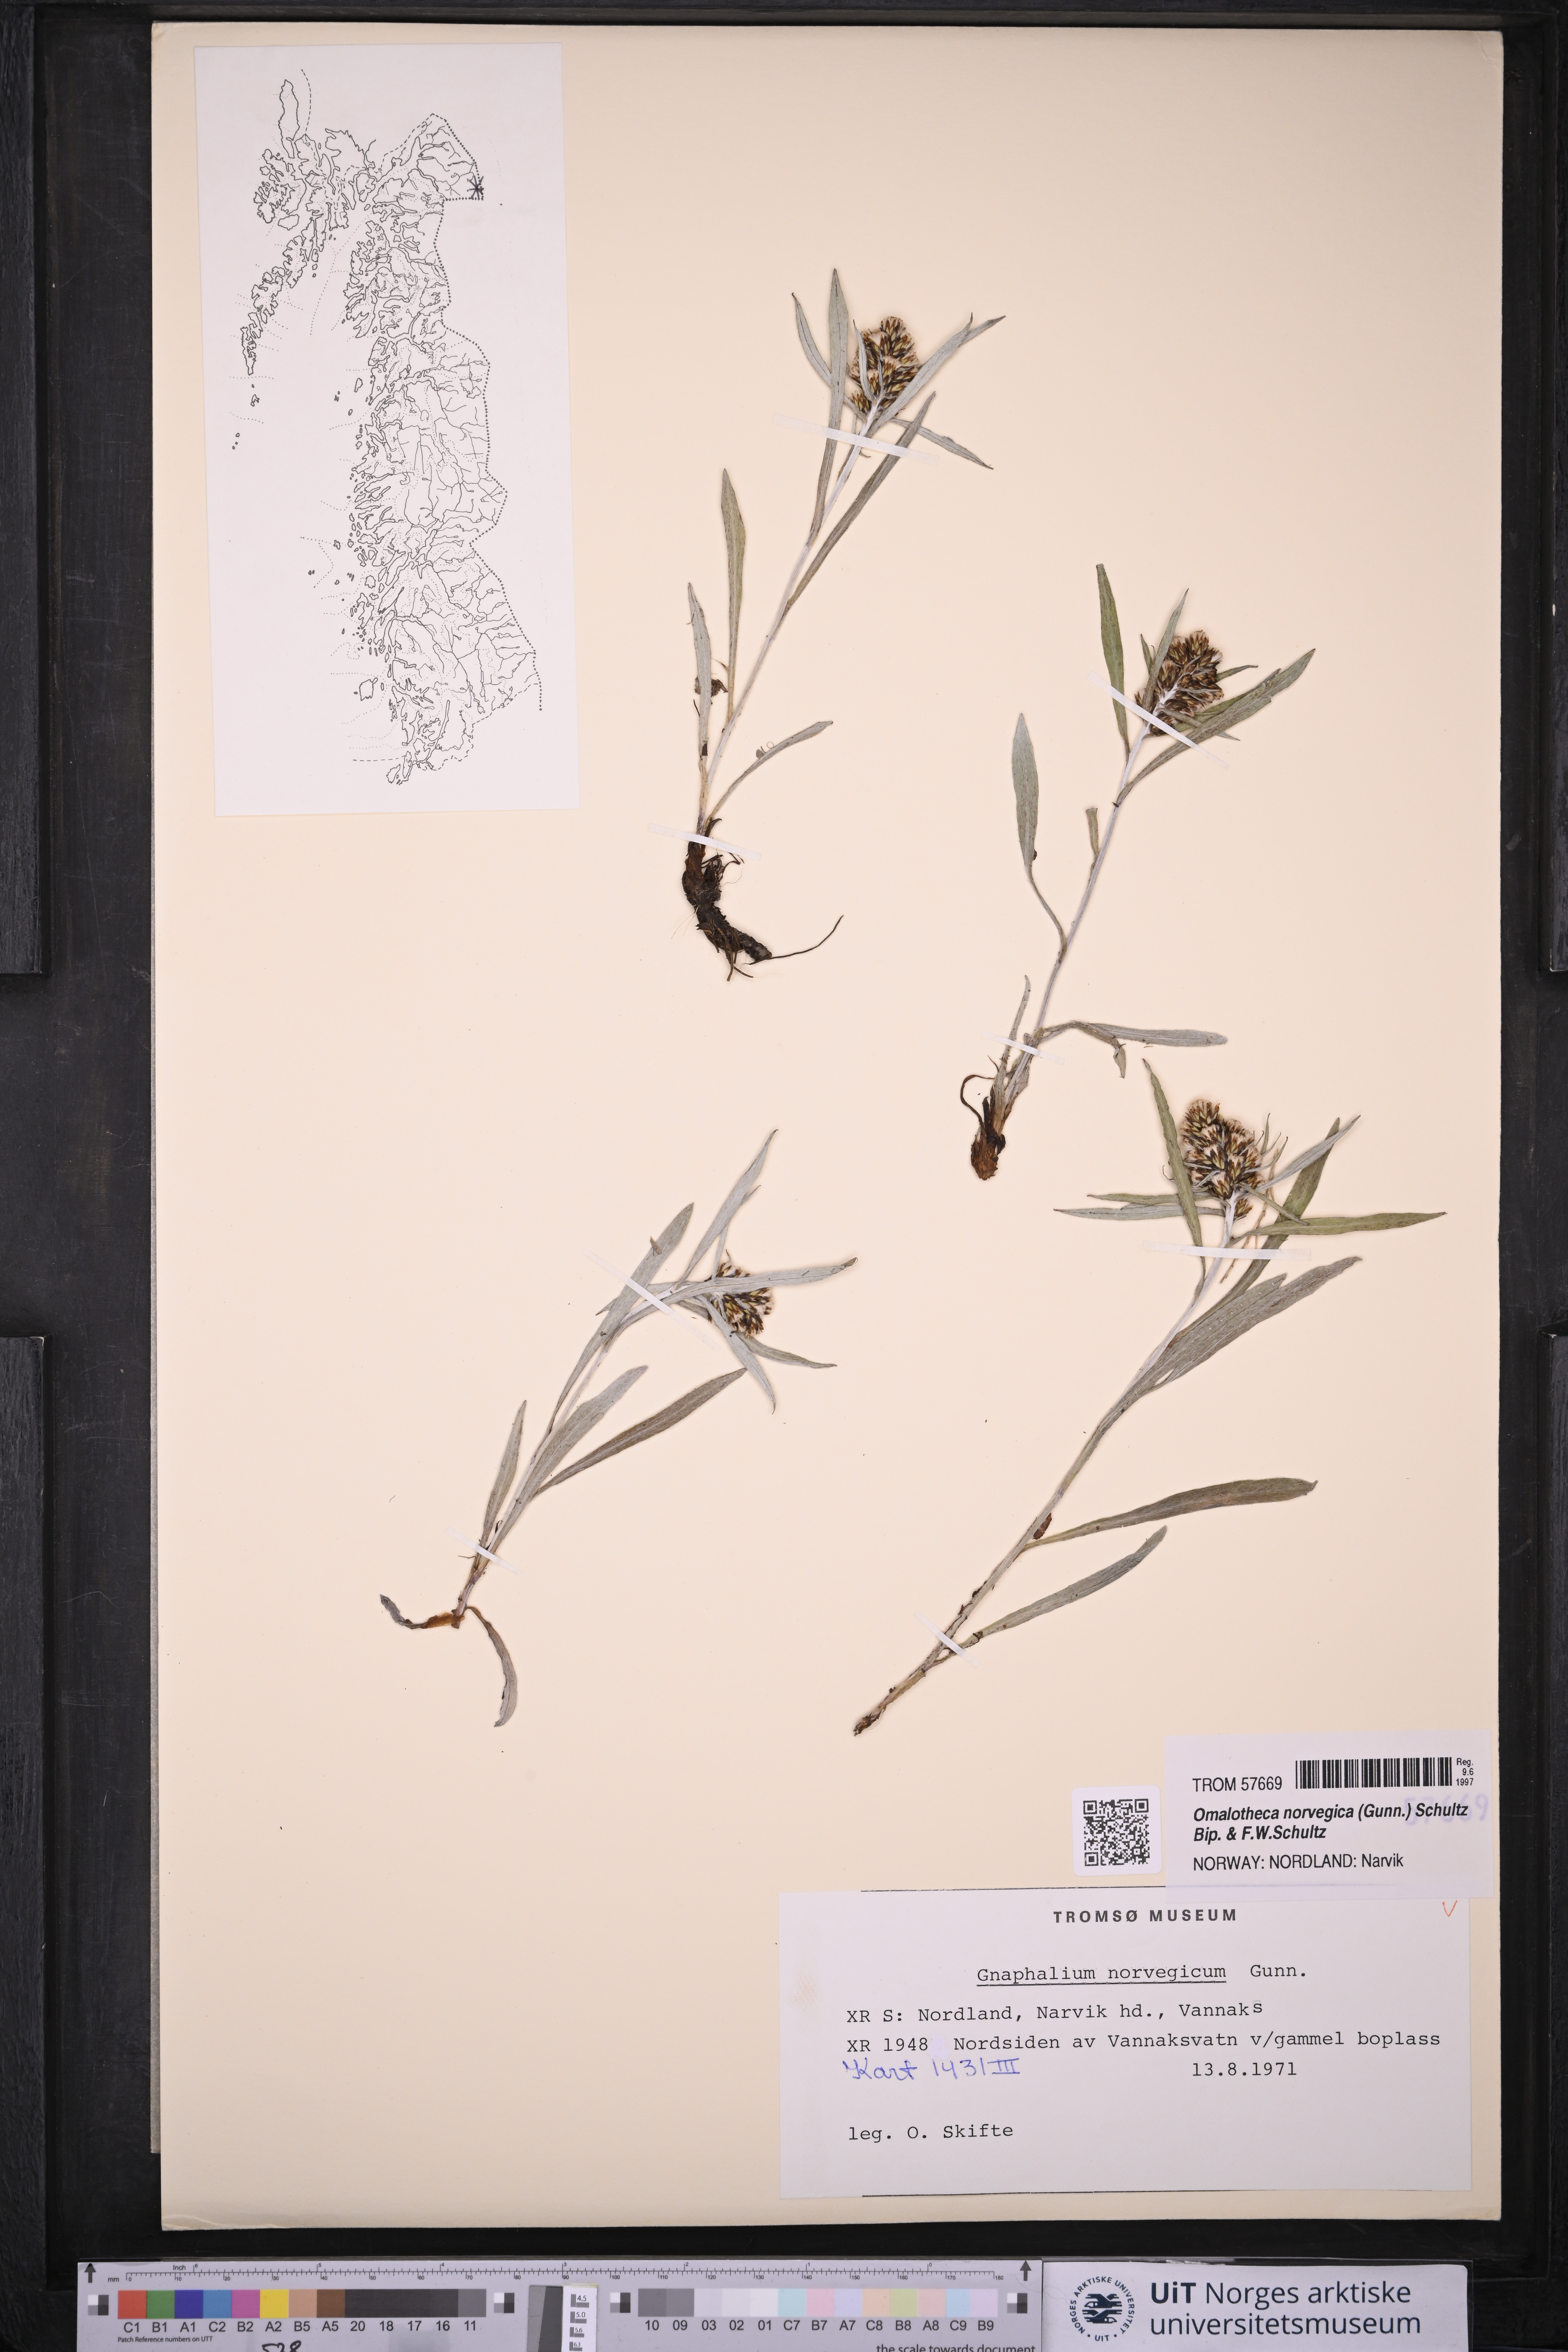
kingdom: Plantae
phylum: Tracheophyta
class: Magnoliopsida
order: Asterales
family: Asteraceae
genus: Omalotheca
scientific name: Omalotheca norvegica
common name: Norwegian arctic-cudweed
